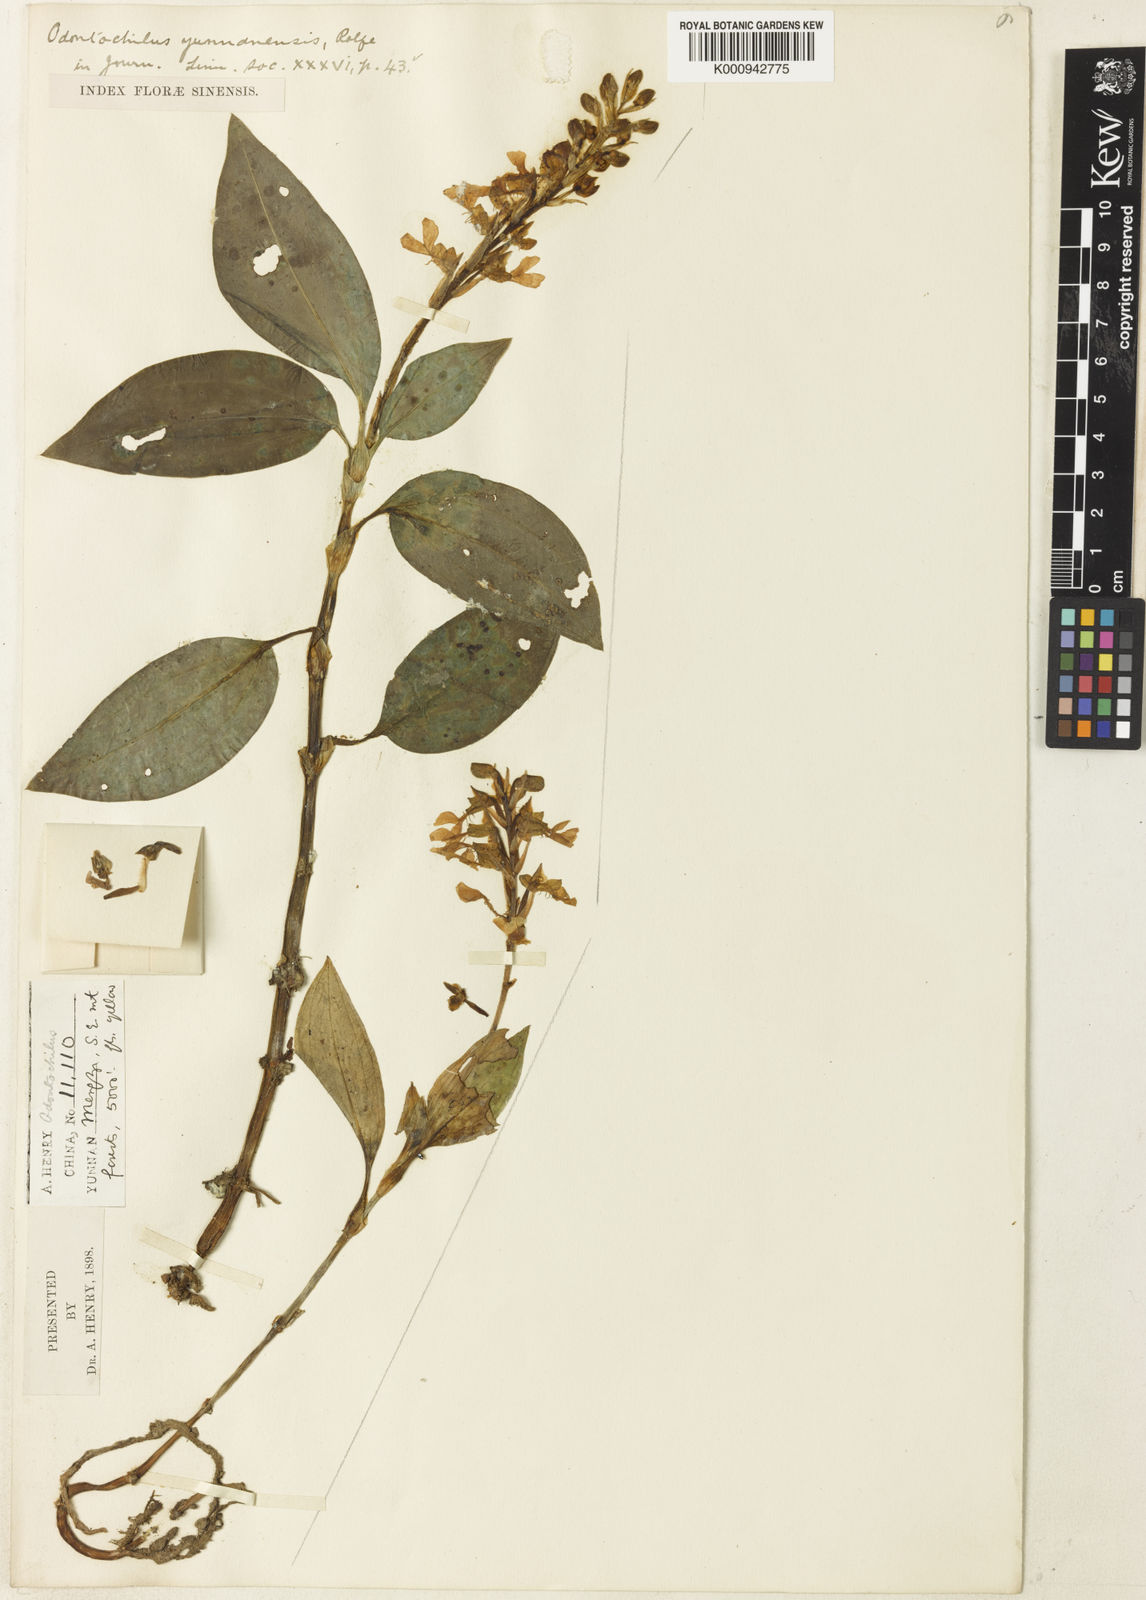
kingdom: Plantae
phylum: Tracheophyta
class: Liliopsida
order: Asparagales
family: Orchidaceae
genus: Odontochilus
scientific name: Odontochilus lanceolatus
